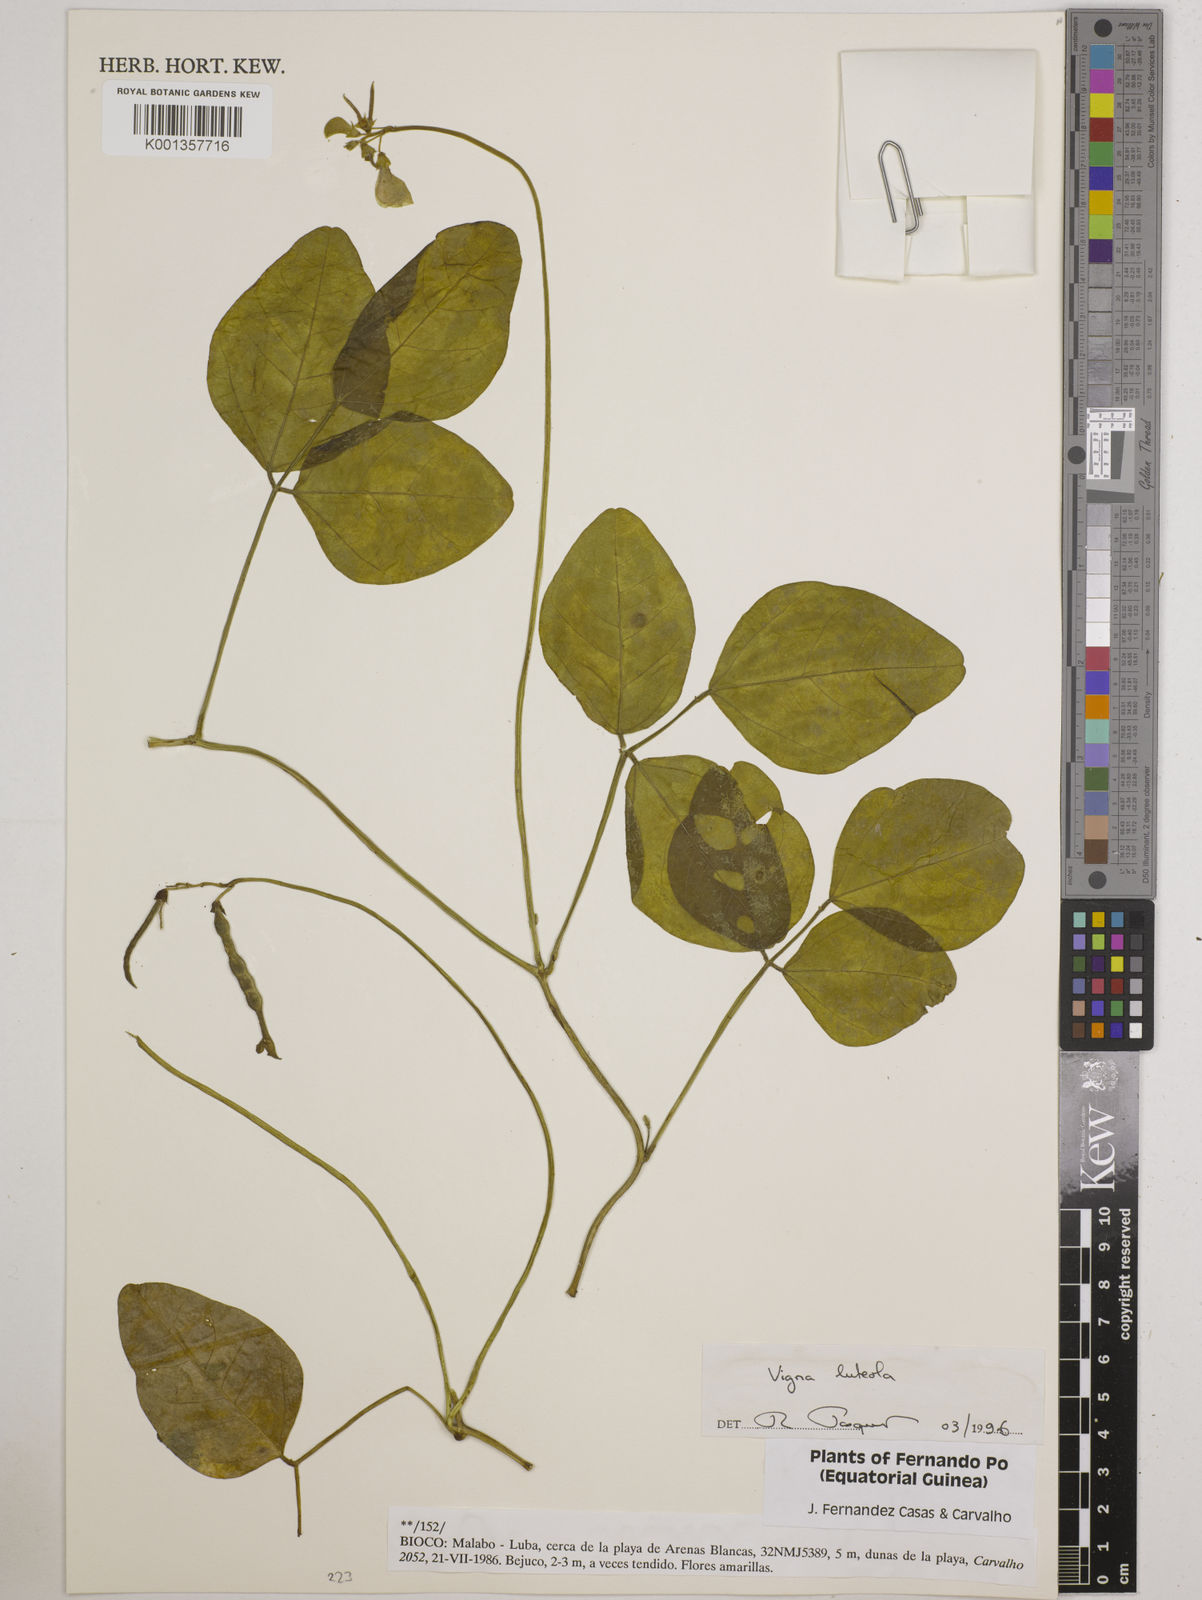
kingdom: Plantae
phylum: Tracheophyta
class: Magnoliopsida
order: Fabales
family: Fabaceae
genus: Vigna
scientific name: Vigna luteola
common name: Hairypod cowpea
